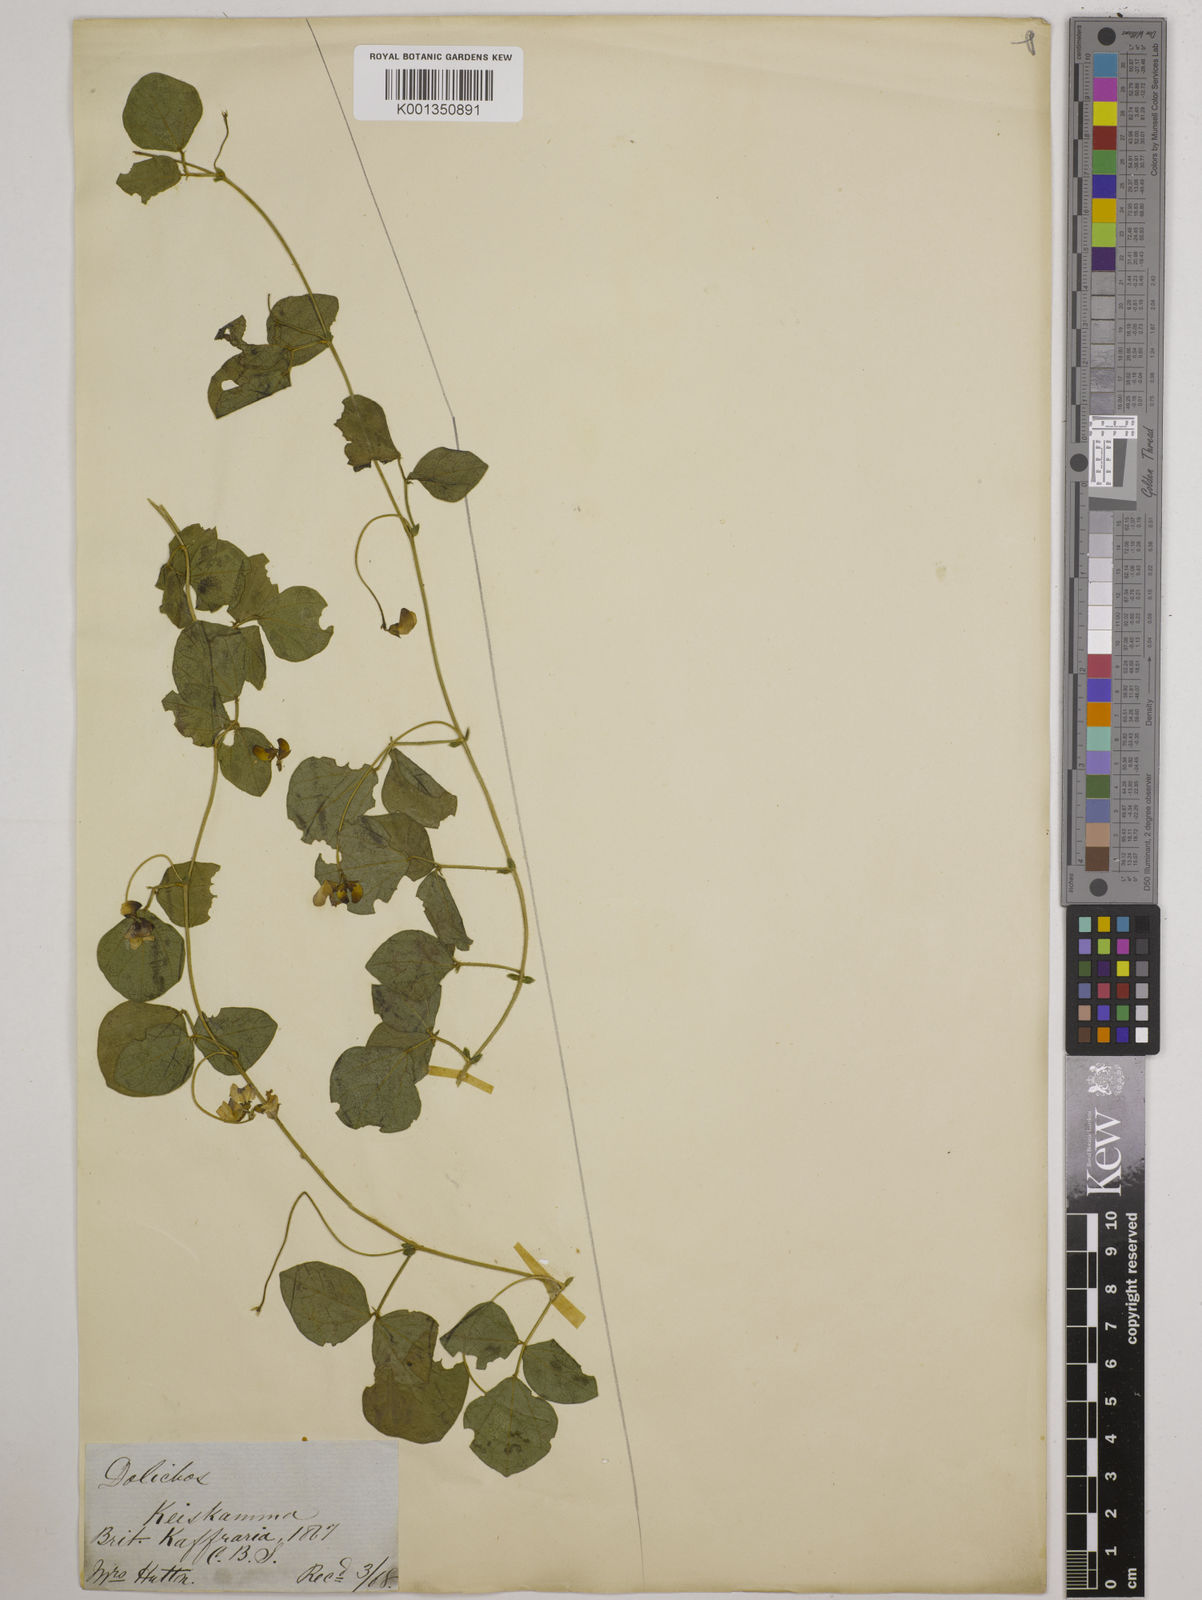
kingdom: Plantae
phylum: Tracheophyta
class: Magnoliopsida
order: Fabales
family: Fabaceae
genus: Dolichos
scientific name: Dolichos falciformis
